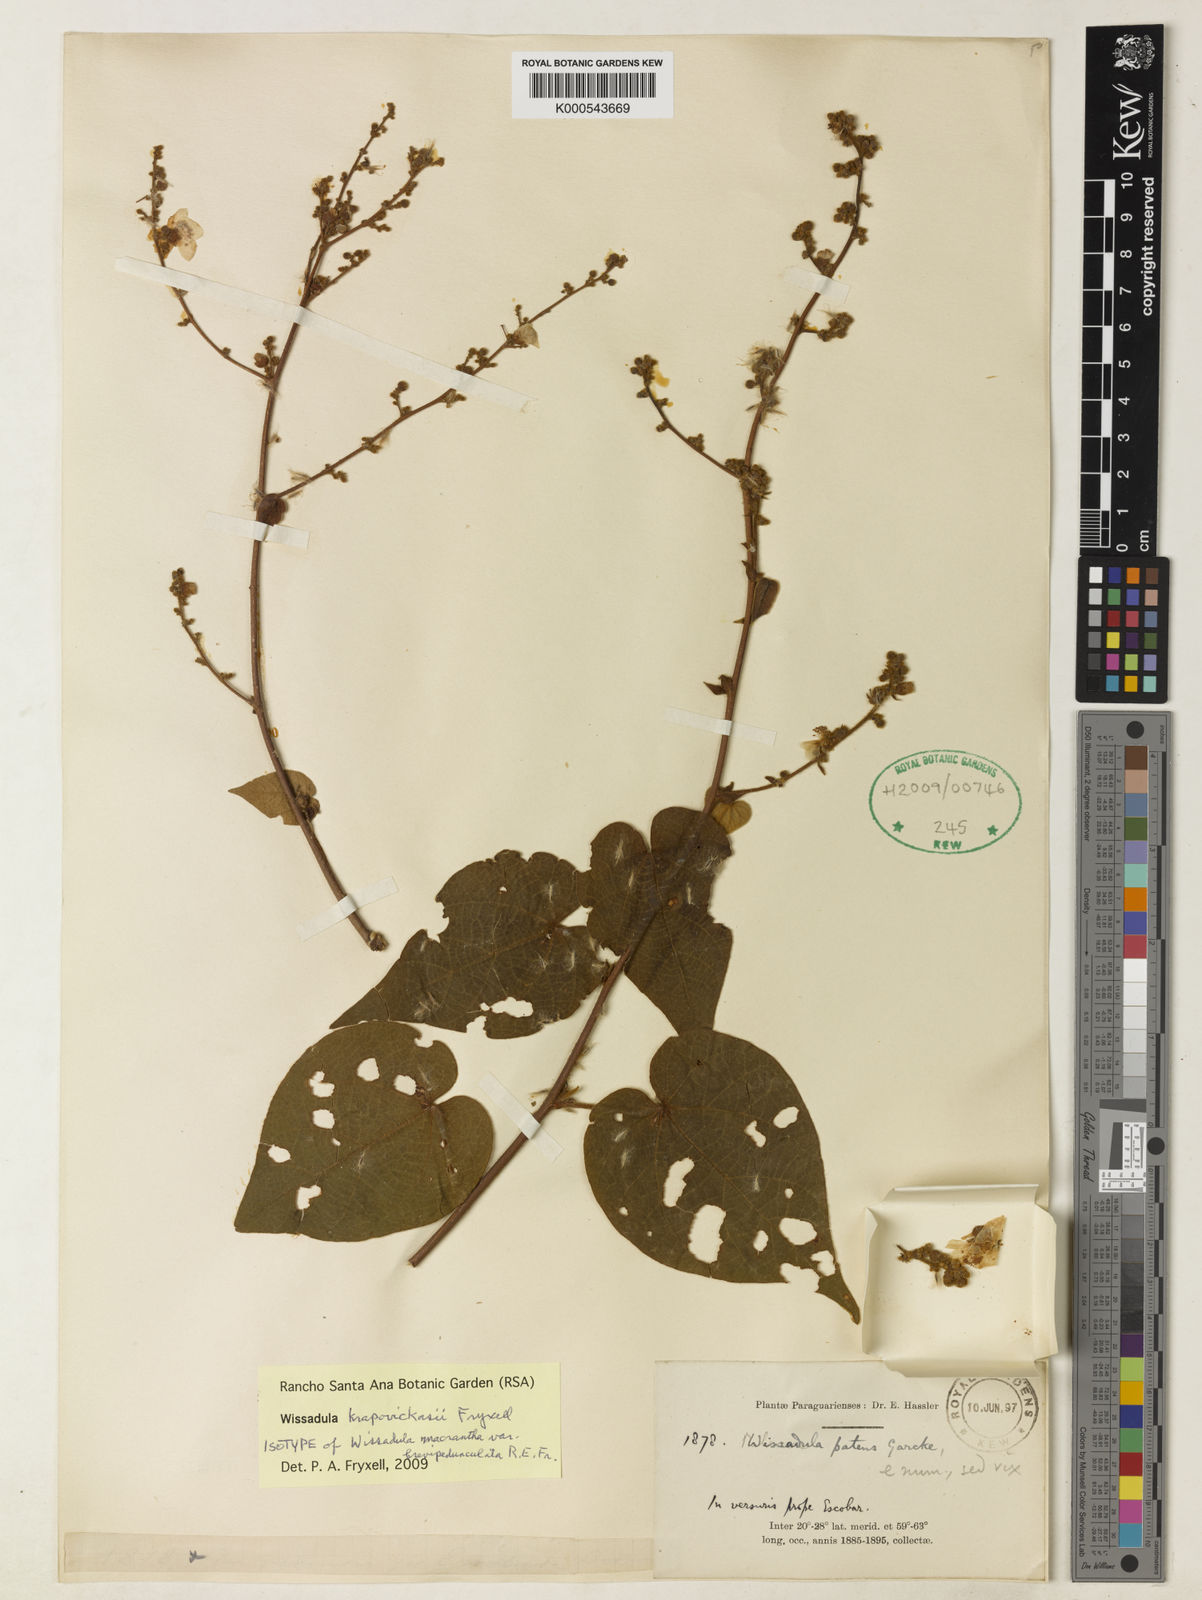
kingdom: Plantae
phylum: Tracheophyta
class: Magnoliopsida
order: Malvales
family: Malvaceae
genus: Wissadula
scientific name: Wissadula
